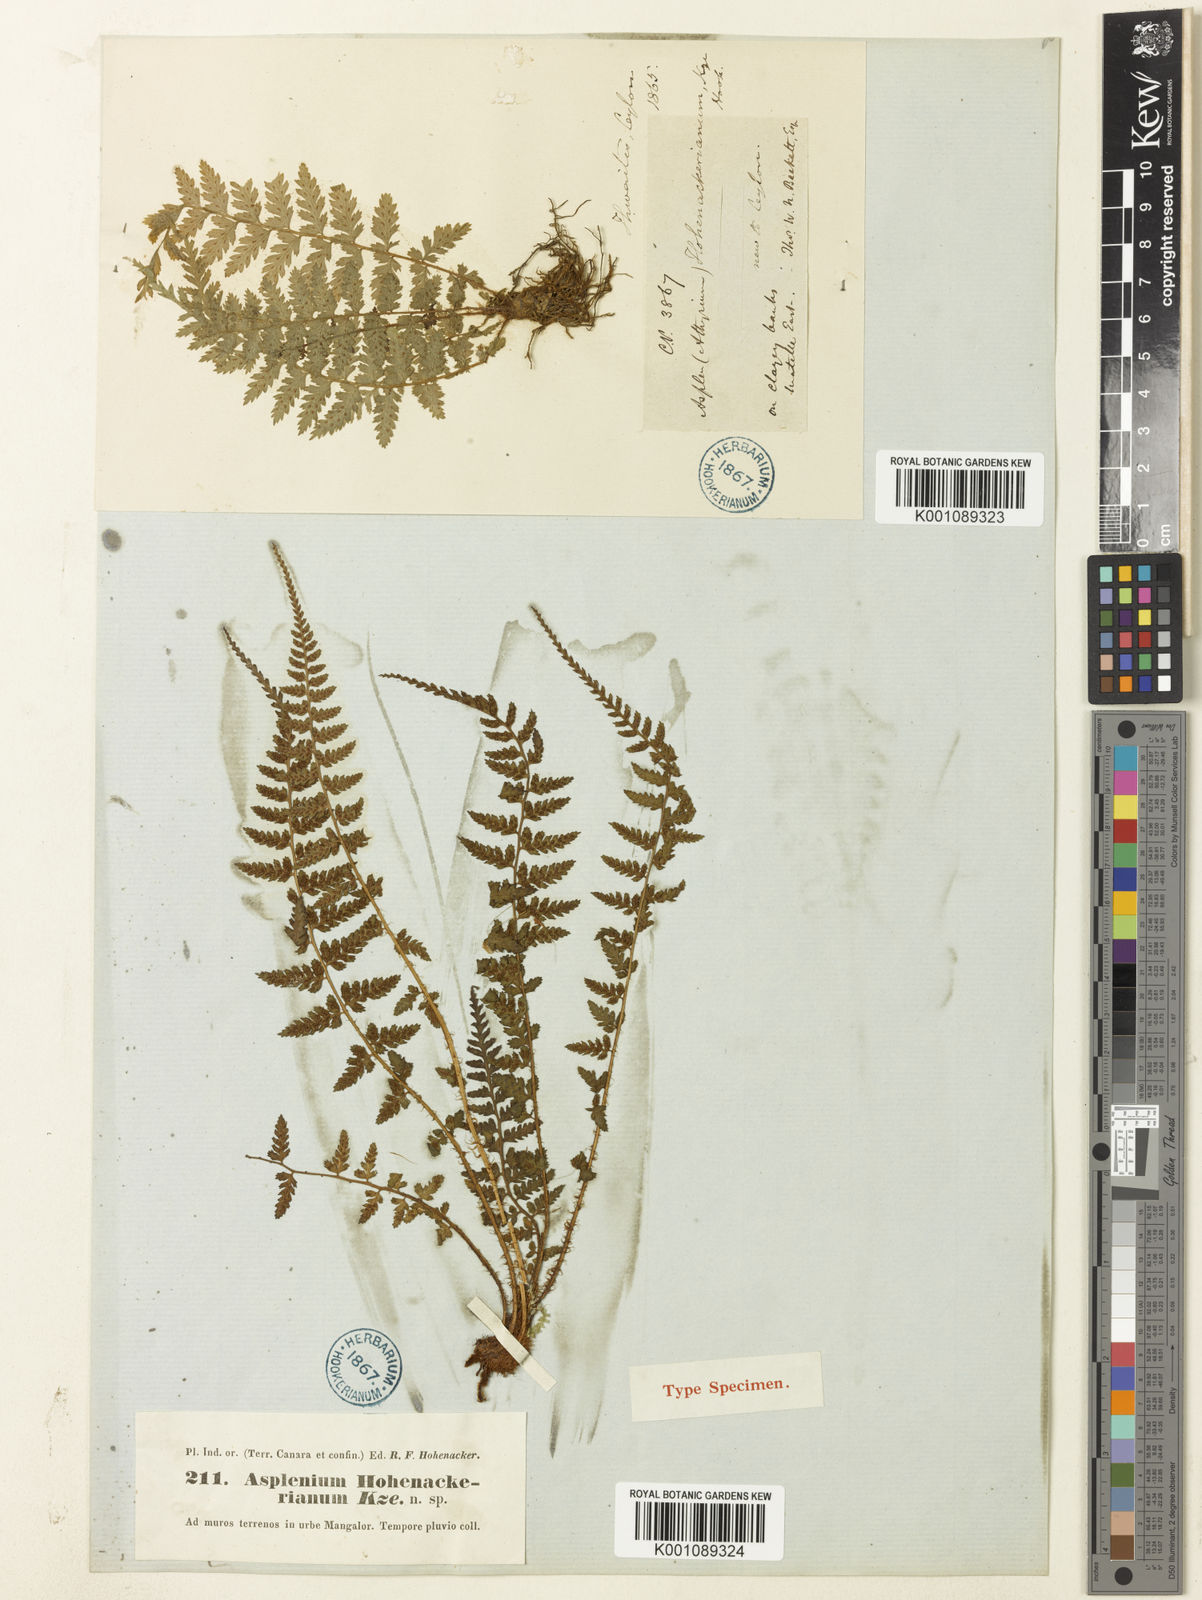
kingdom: Plantae
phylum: Tracheophyta
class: Polypodiopsida
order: Polypodiales
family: Athyriaceae
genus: Athyrium
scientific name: Athyrium hohenackerianum
